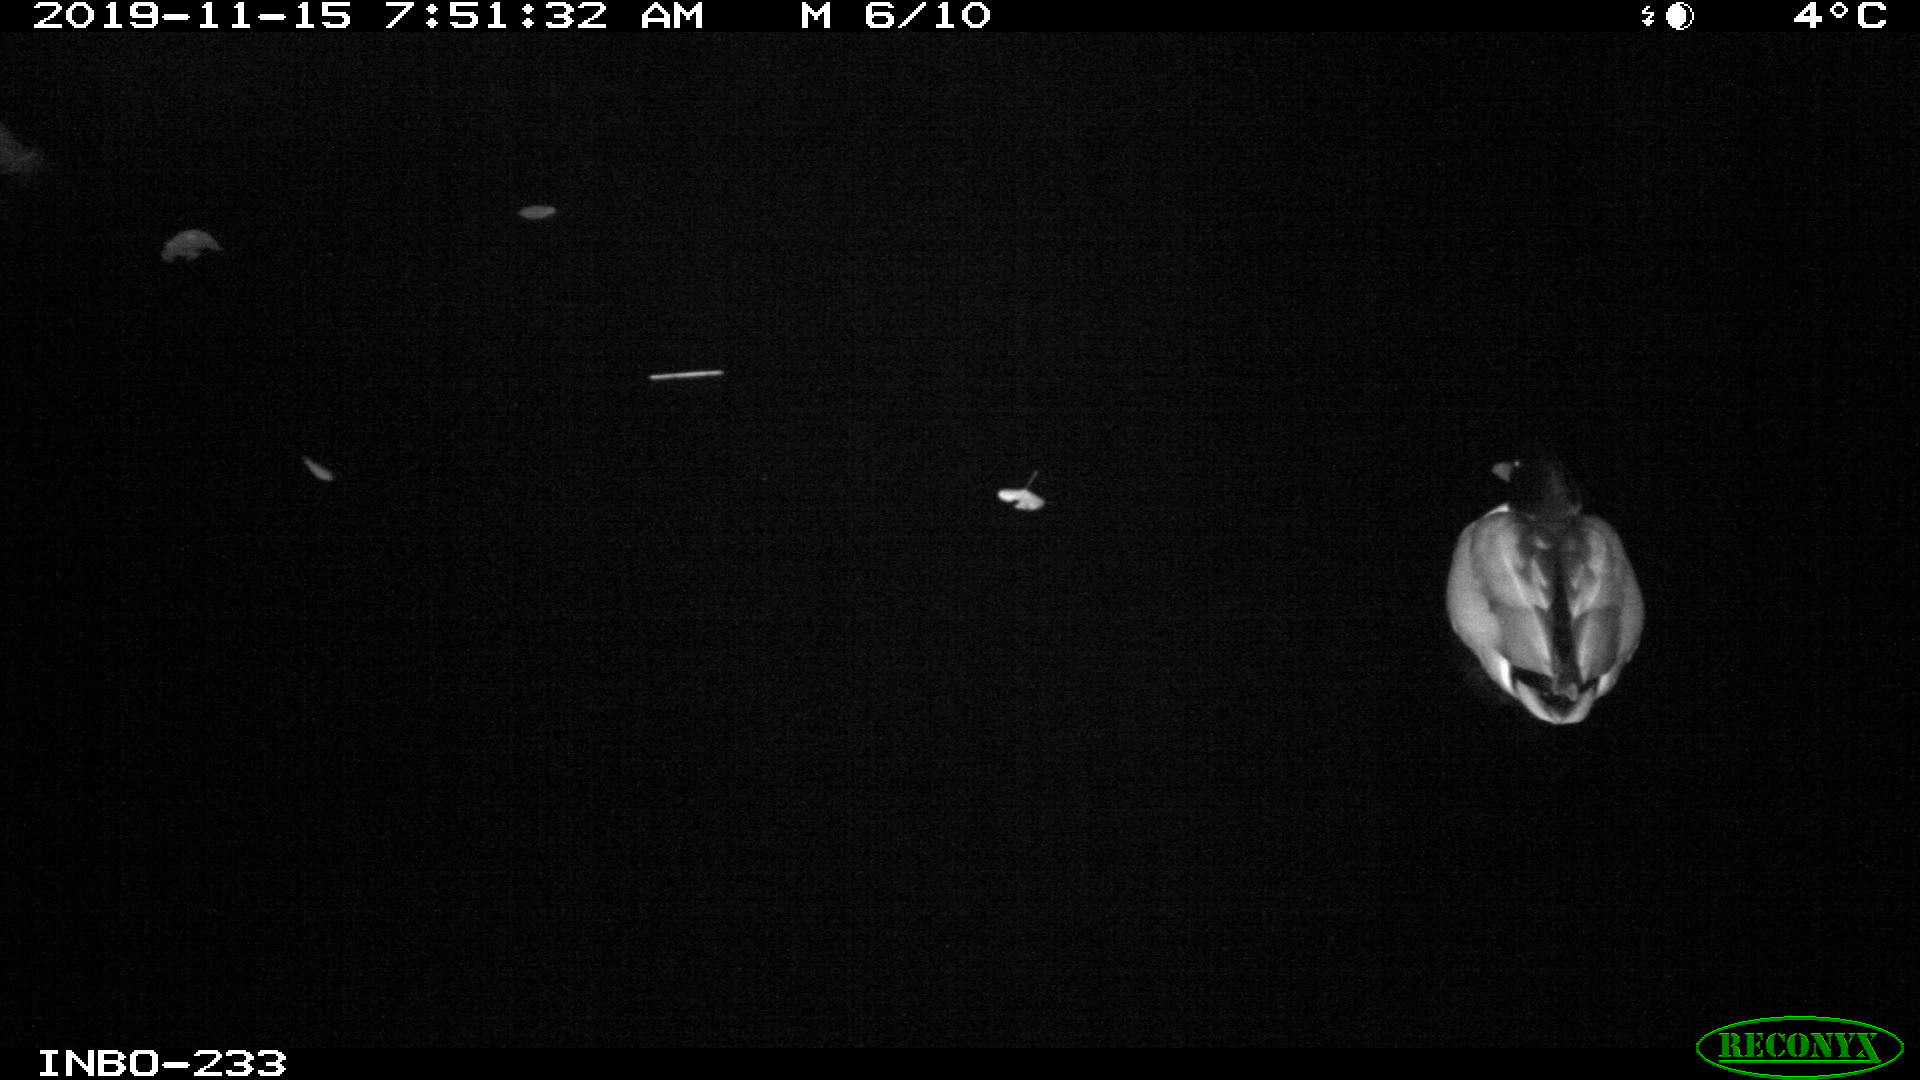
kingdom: Animalia
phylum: Chordata
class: Aves
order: Anseriformes
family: Anatidae
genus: Anas
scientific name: Anas platyrhynchos
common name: Mallard
